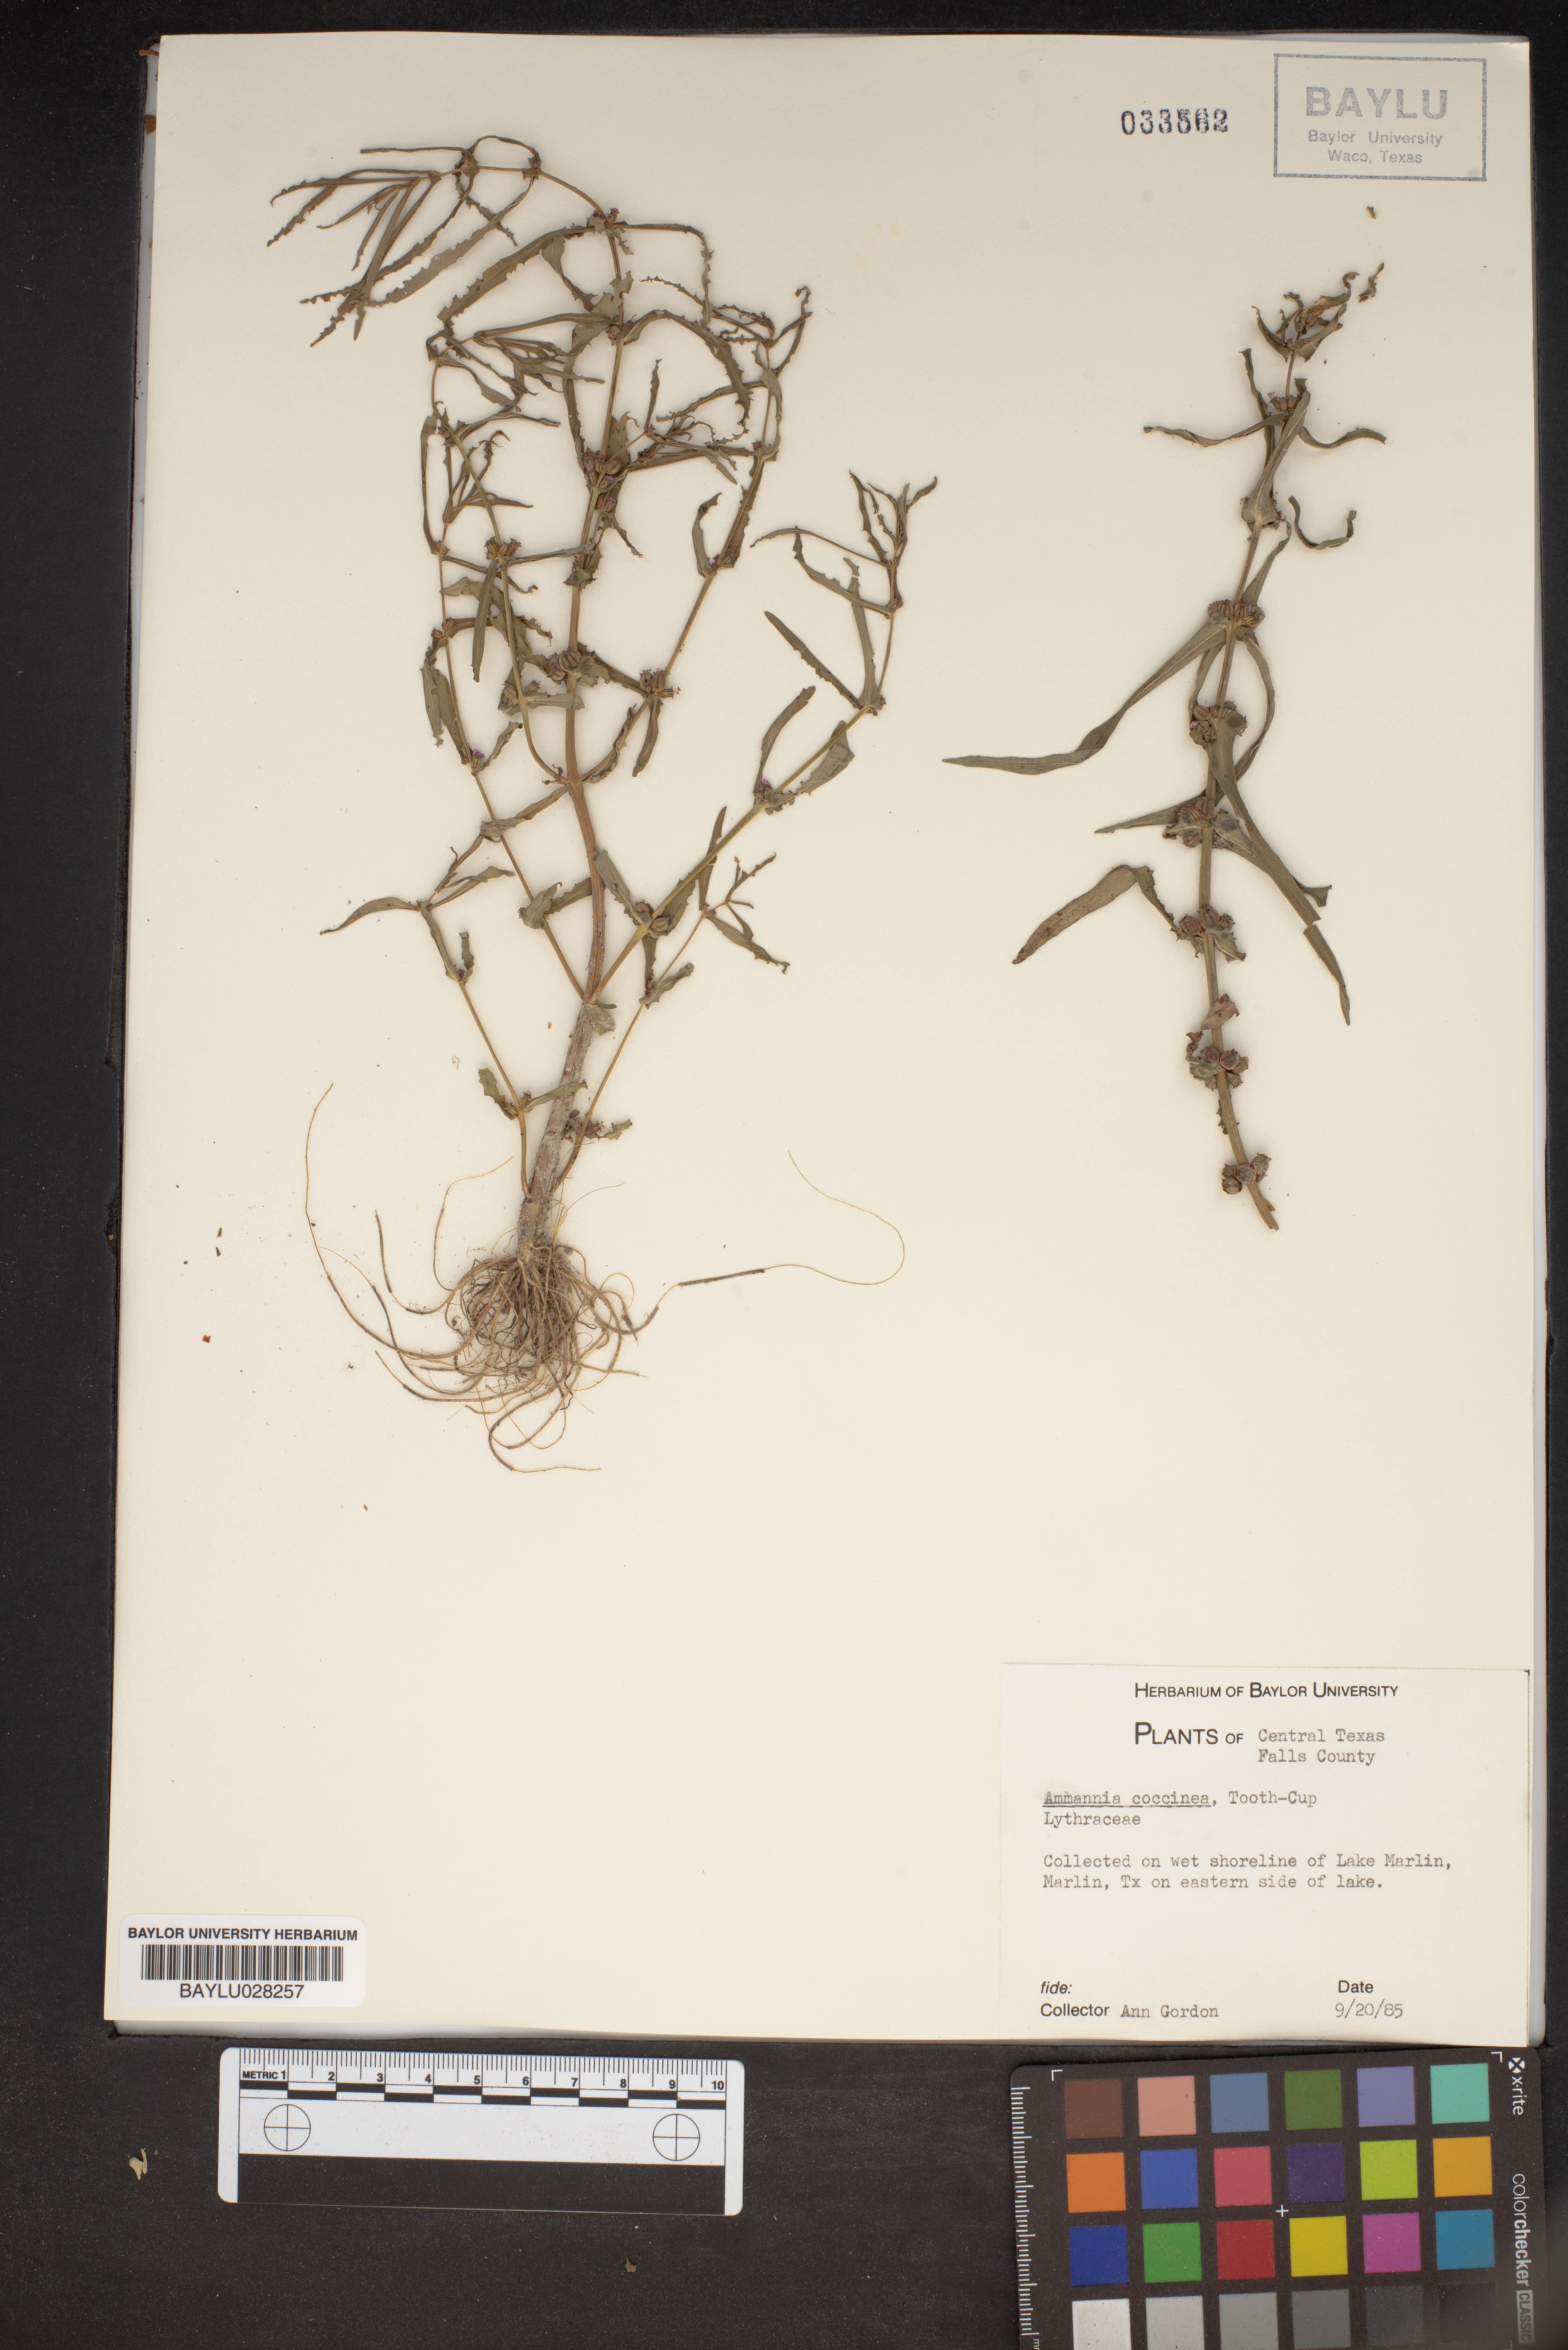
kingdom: Plantae
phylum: Tracheophyta
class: Magnoliopsida
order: Myrtales
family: Lythraceae
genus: Ammannia
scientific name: Ammannia coccinea
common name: Valley redstem
